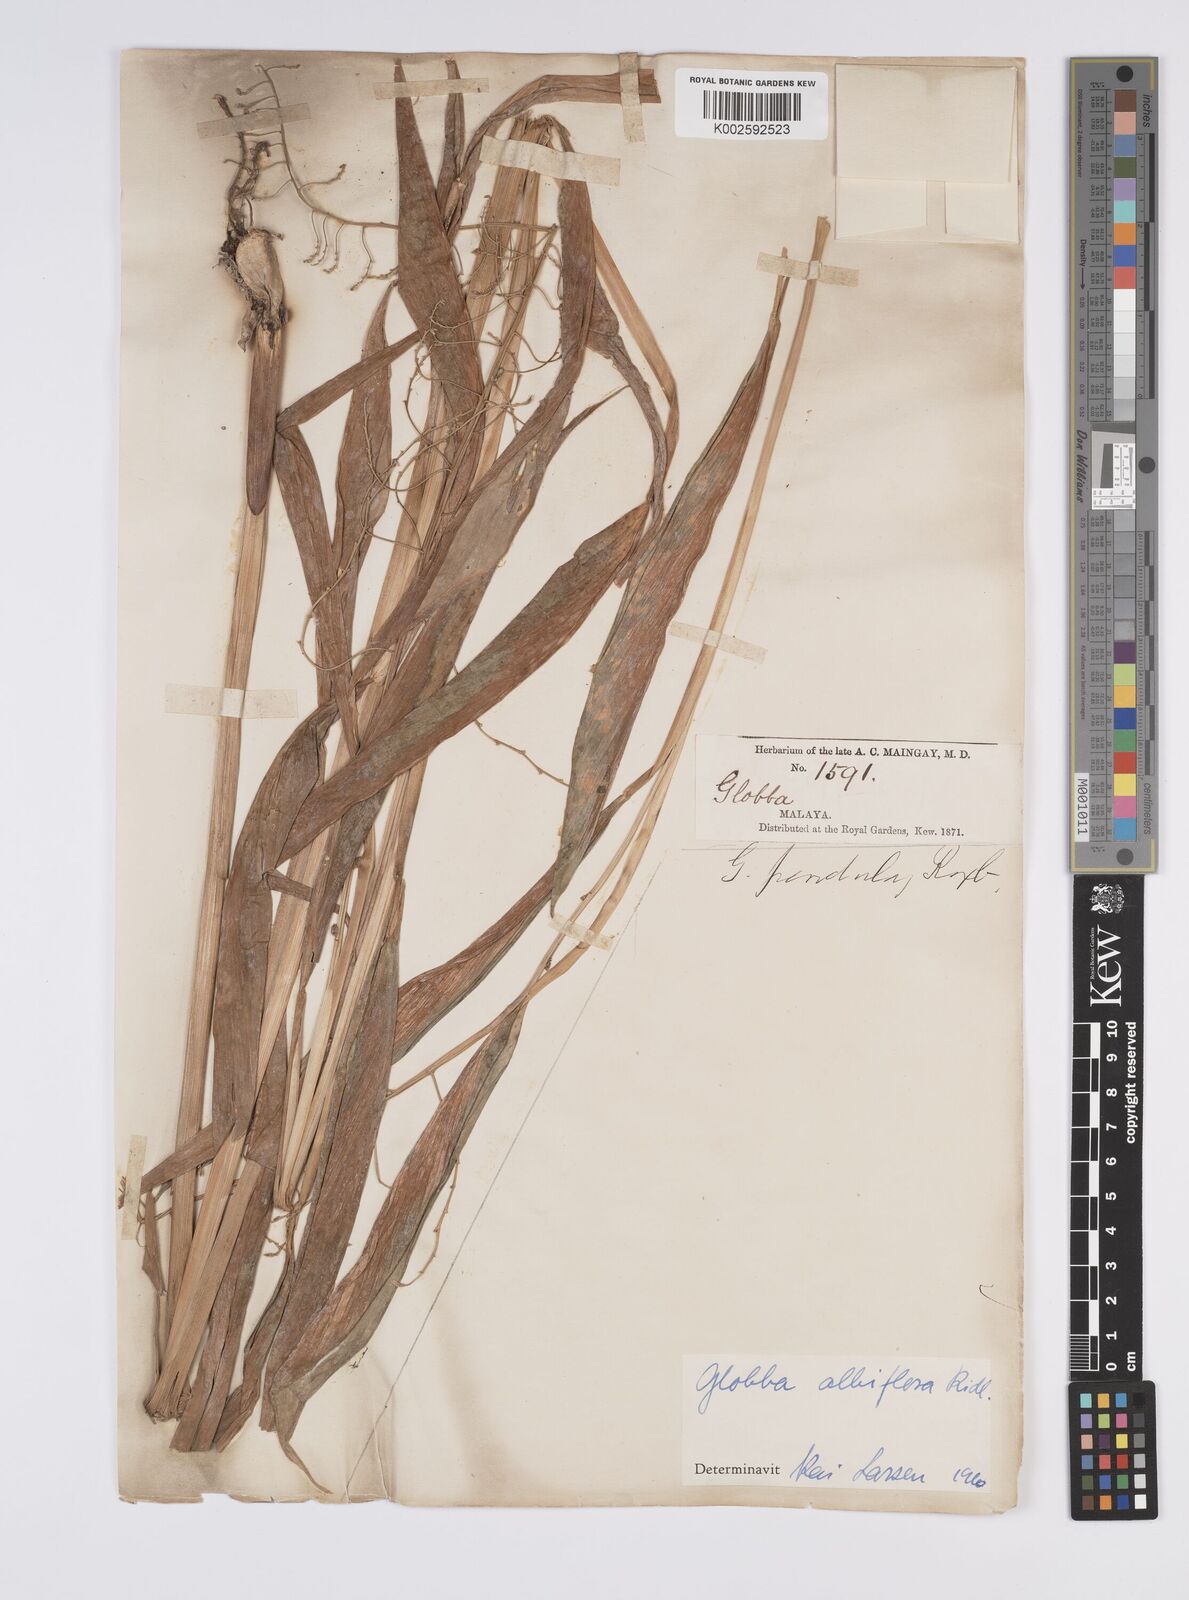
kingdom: Plantae
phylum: Tracheophyta
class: Liliopsida
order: Zingiberales
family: Zingiberaceae
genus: Globba
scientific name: Globba albiflora
